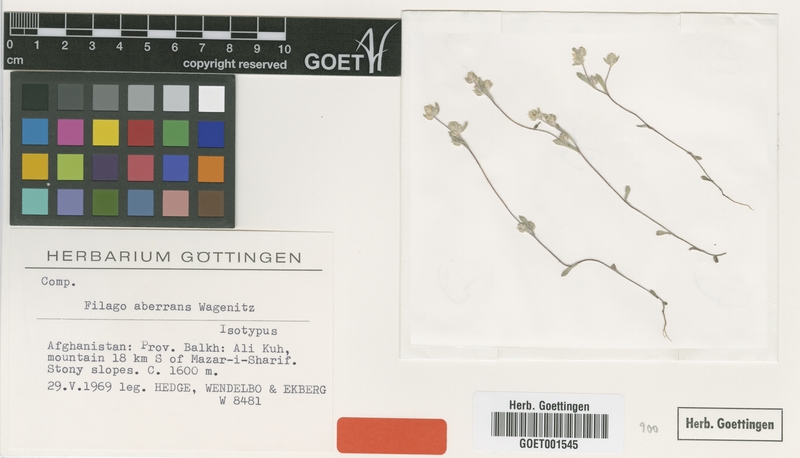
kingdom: Plantae
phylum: Tracheophyta
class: Magnoliopsida
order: Asterales
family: Asteraceae
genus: Filago
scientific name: Filago aberrans
